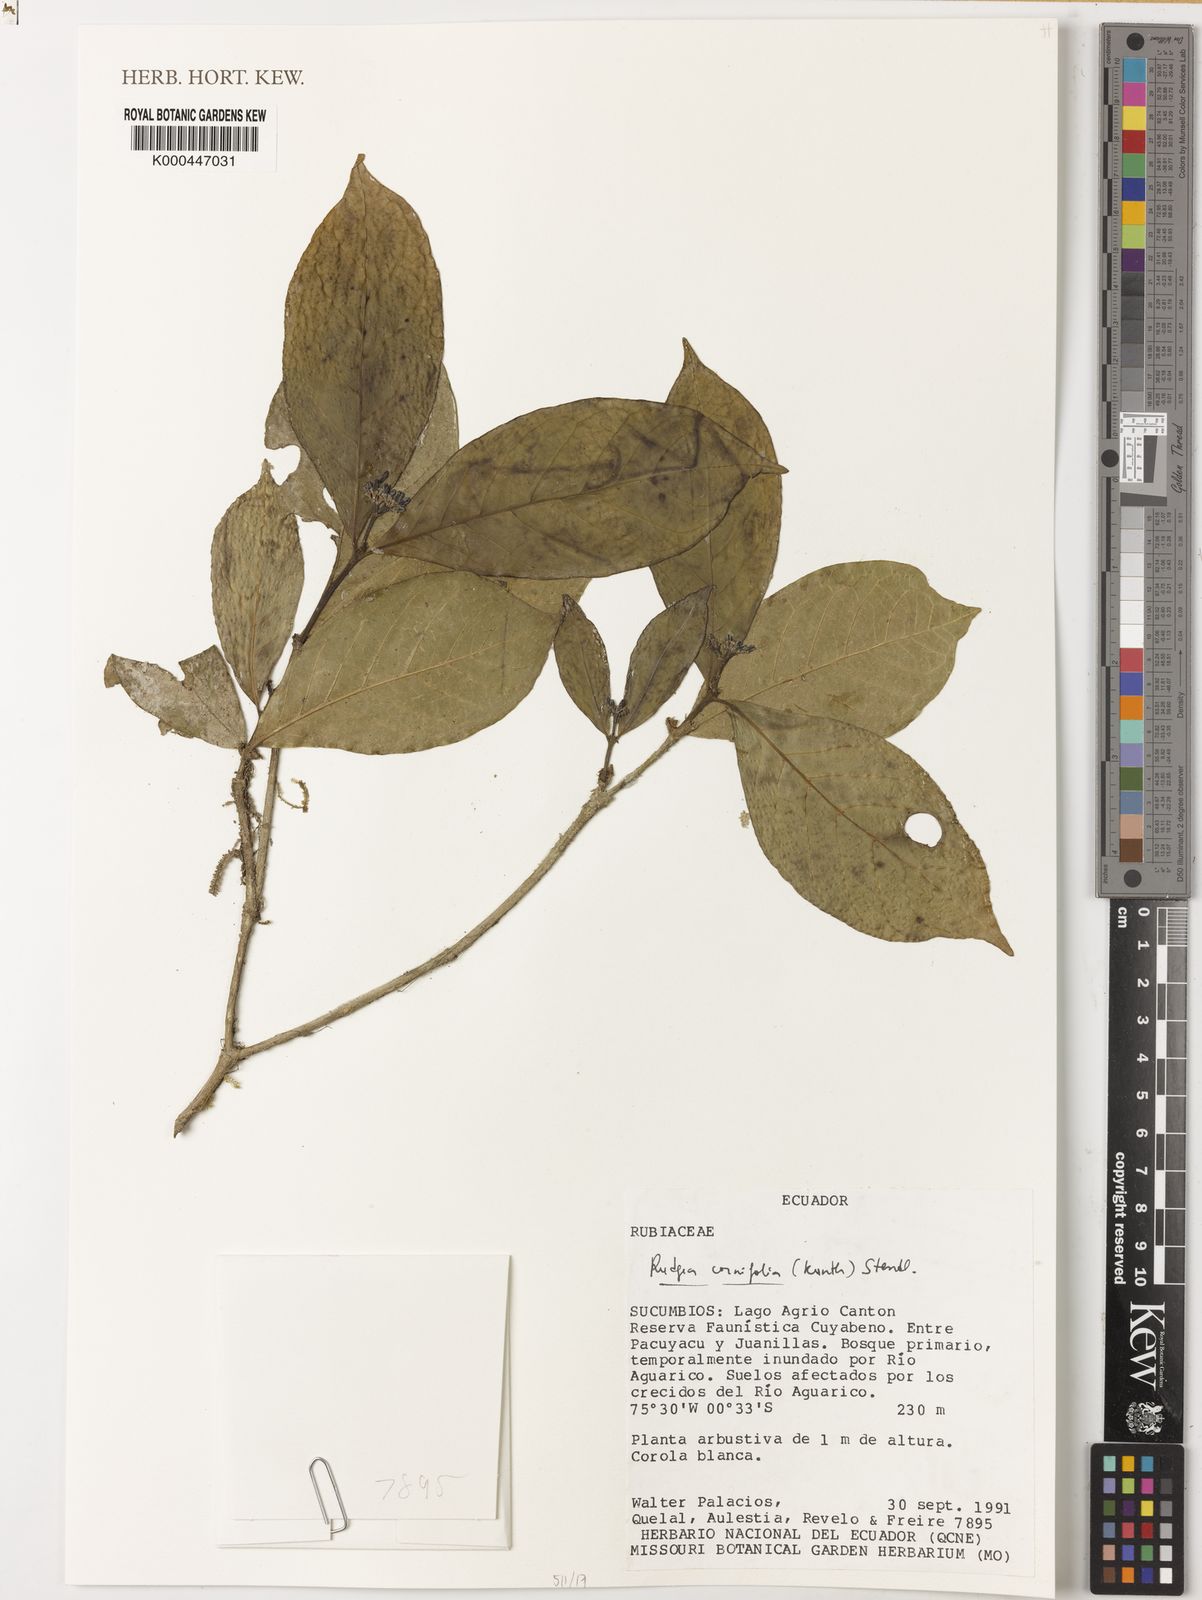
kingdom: Plantae
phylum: Tracheophyta
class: Magnoliopsida
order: Gentianales
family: Rubiaceae
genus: Rudgea
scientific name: Rudgea cornifolia
